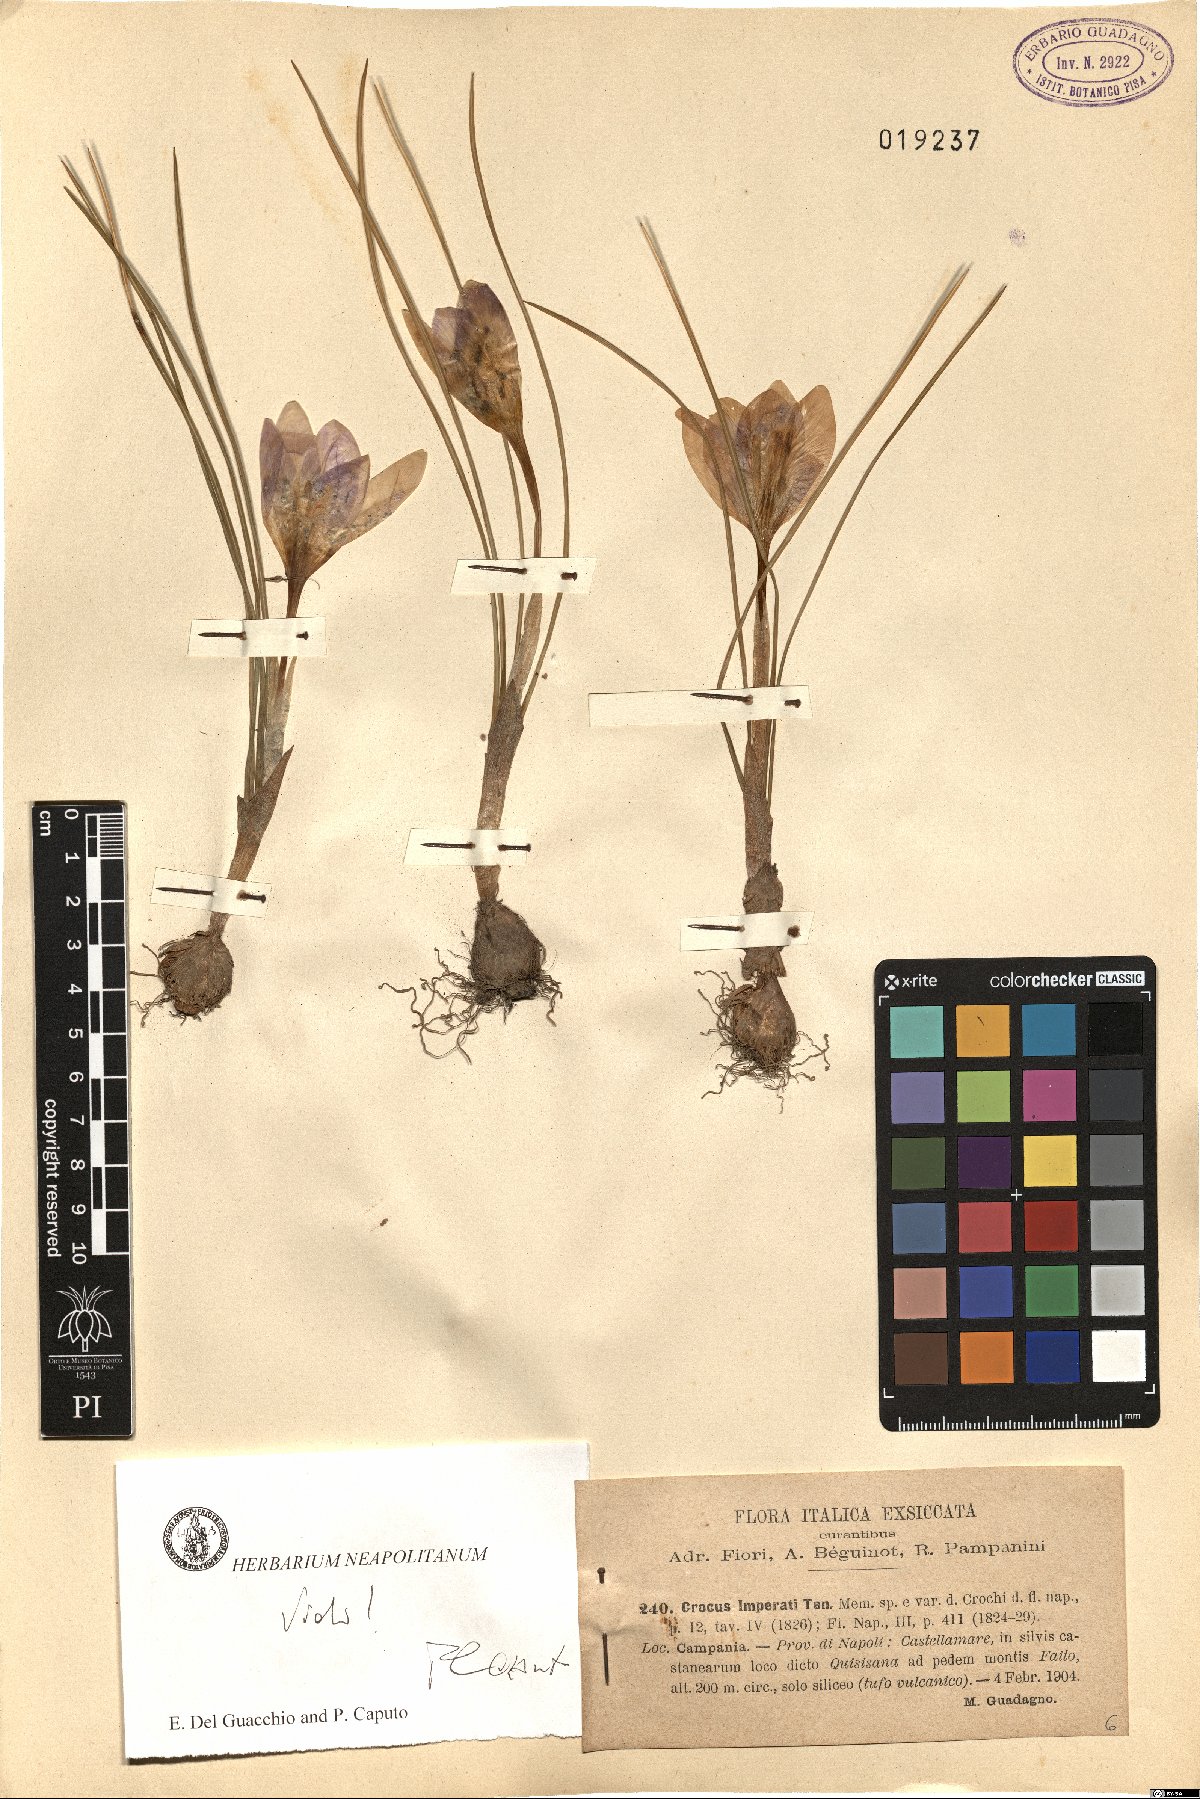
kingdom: Plantae
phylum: Tracheophyta
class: Liliopsida
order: Asparagales
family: Iridaceae
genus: Crocus
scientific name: Crocus imperati
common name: Early crocus
